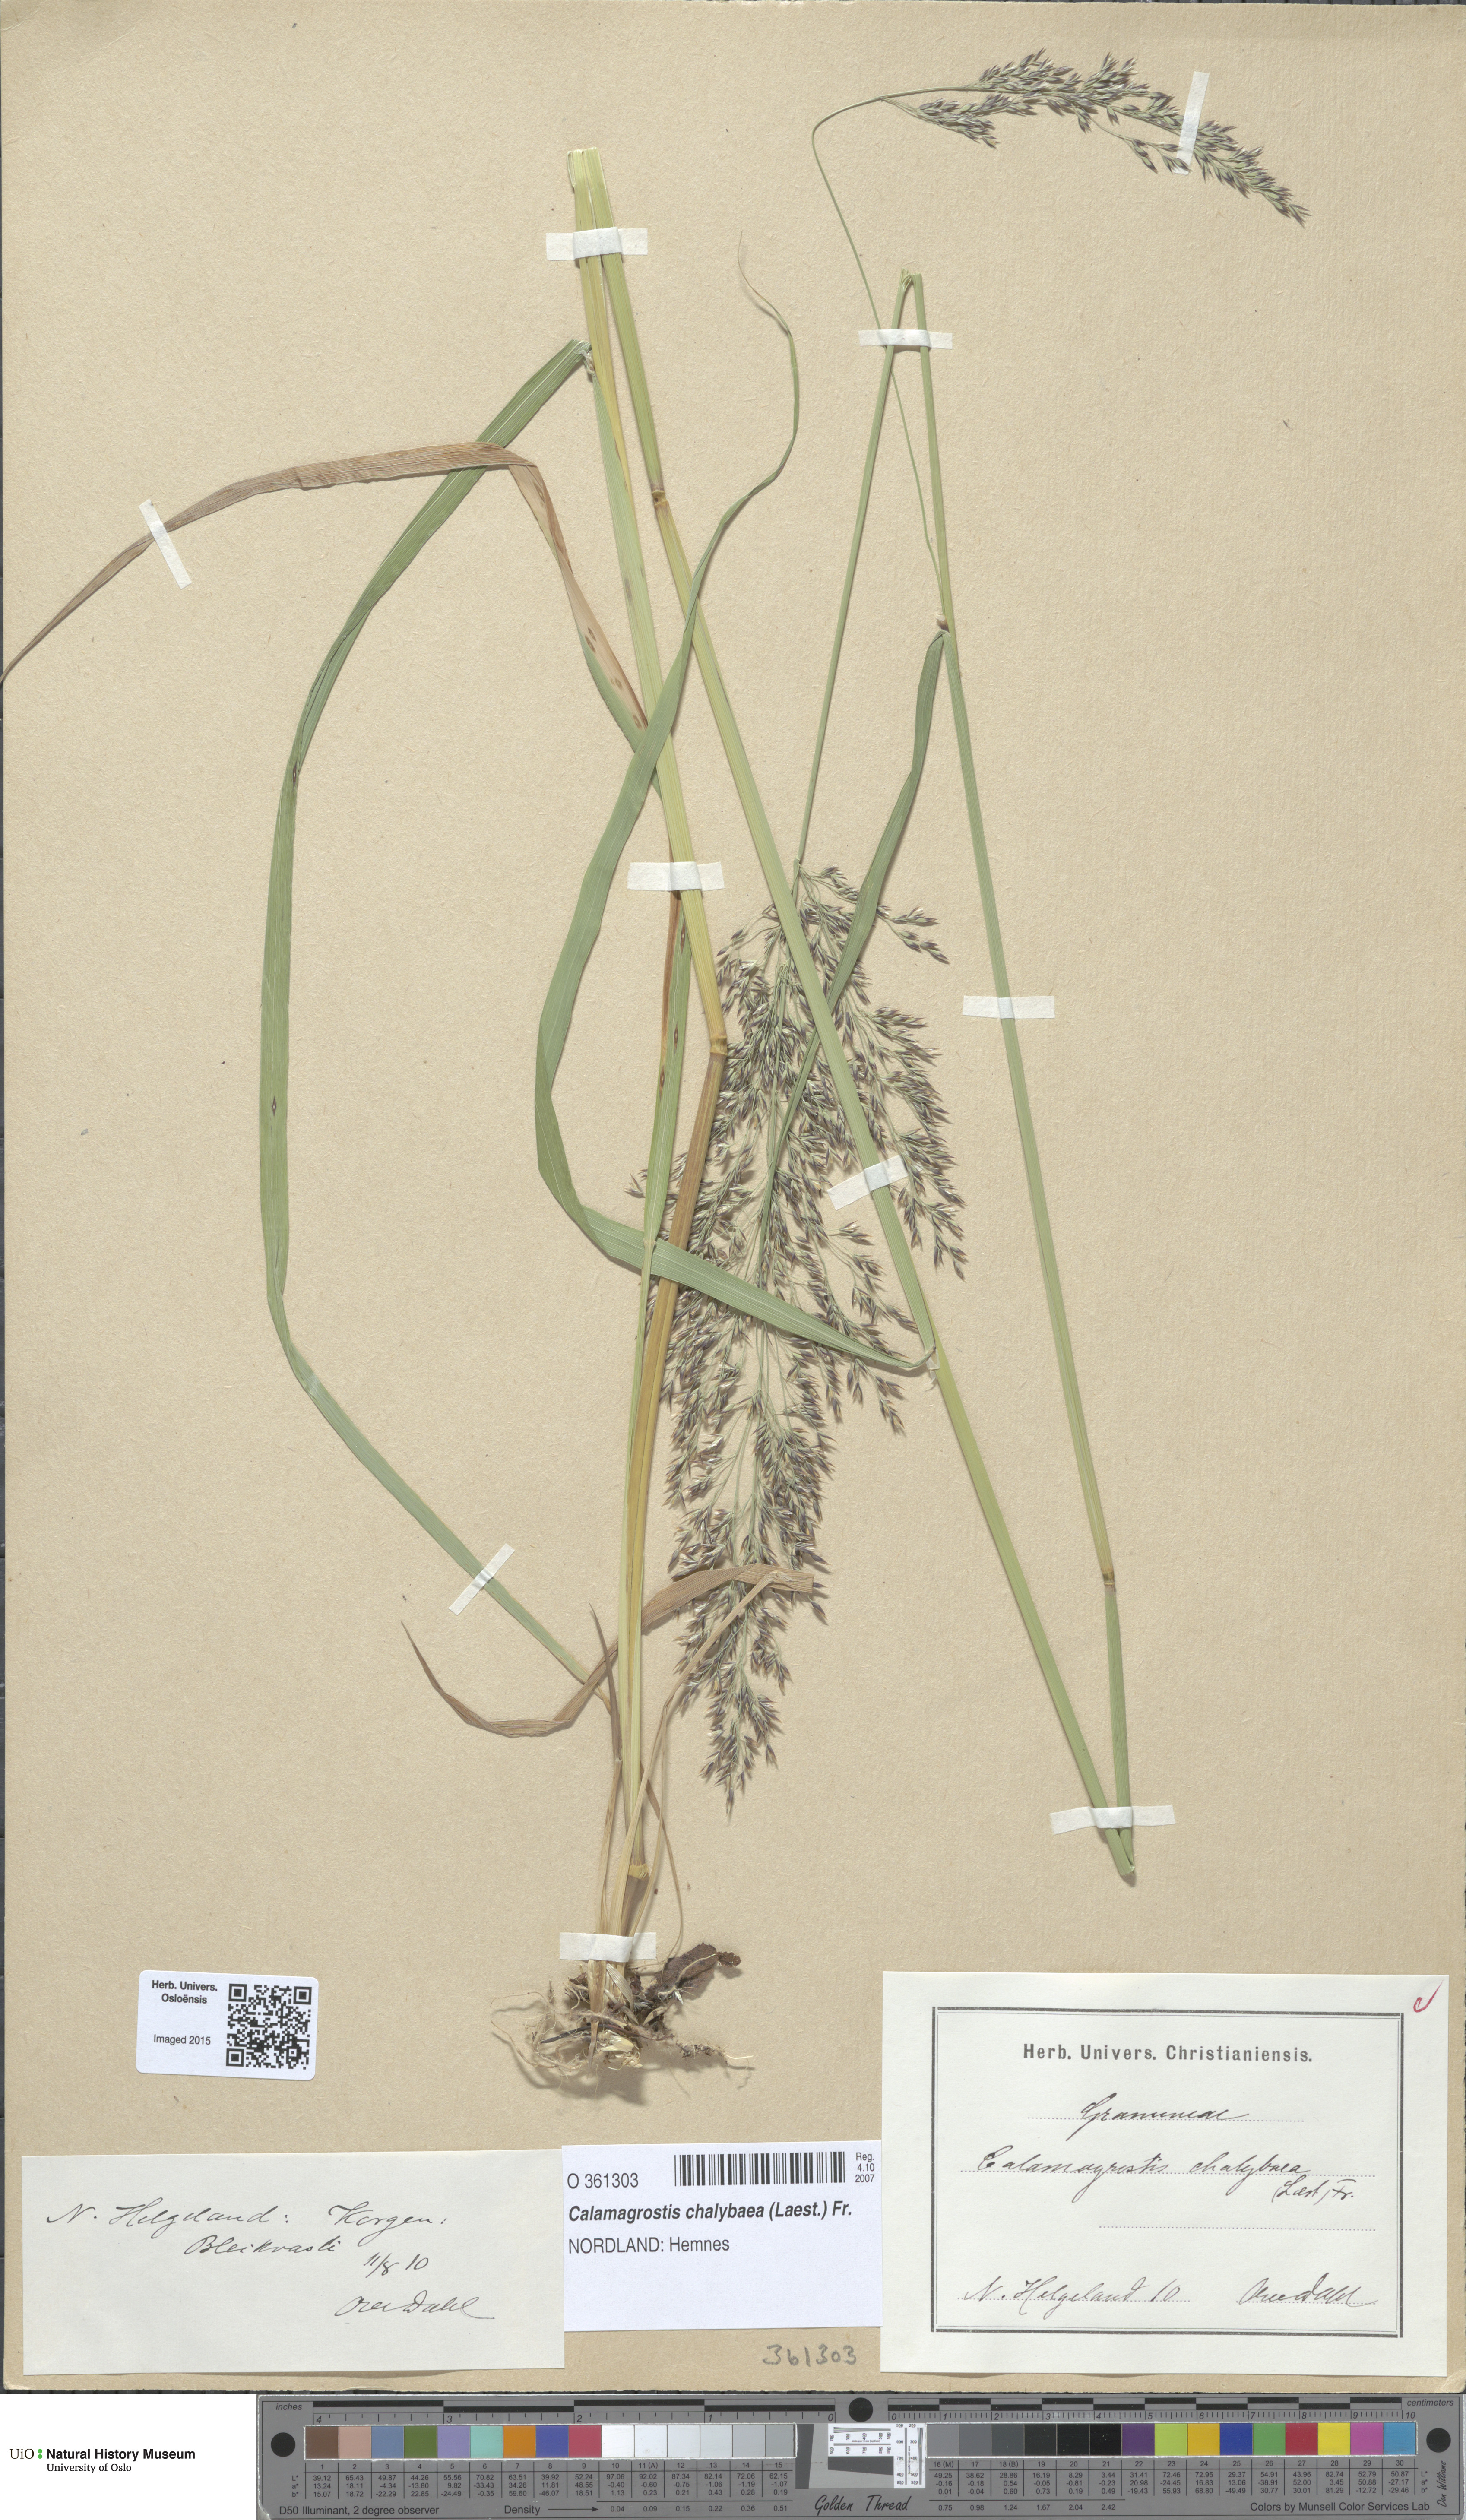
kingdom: Plantae
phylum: Tracheophyta
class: Liliopsida
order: Poales
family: Poaceae
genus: Calamagrostis
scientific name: Calamagrostis chalybaea
